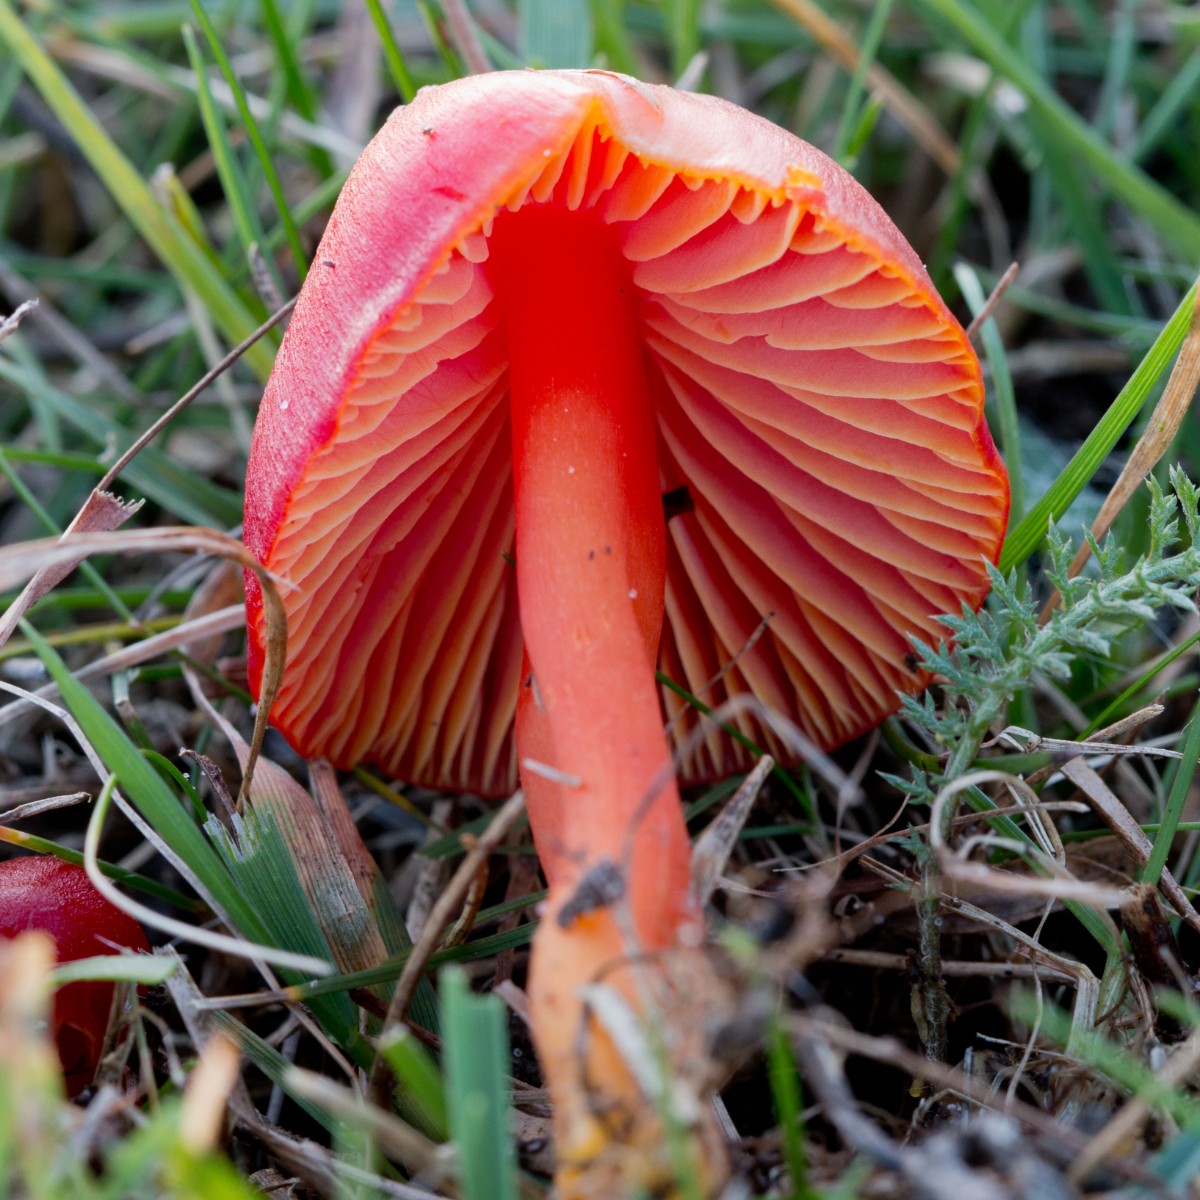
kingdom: Fungi
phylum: Basidiomycota
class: Agaricomycetes
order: Agaricales
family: Hygrophoraceae
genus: Hygrocybe
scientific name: Hygrocybe coccinea
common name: cinnober-vokshat
